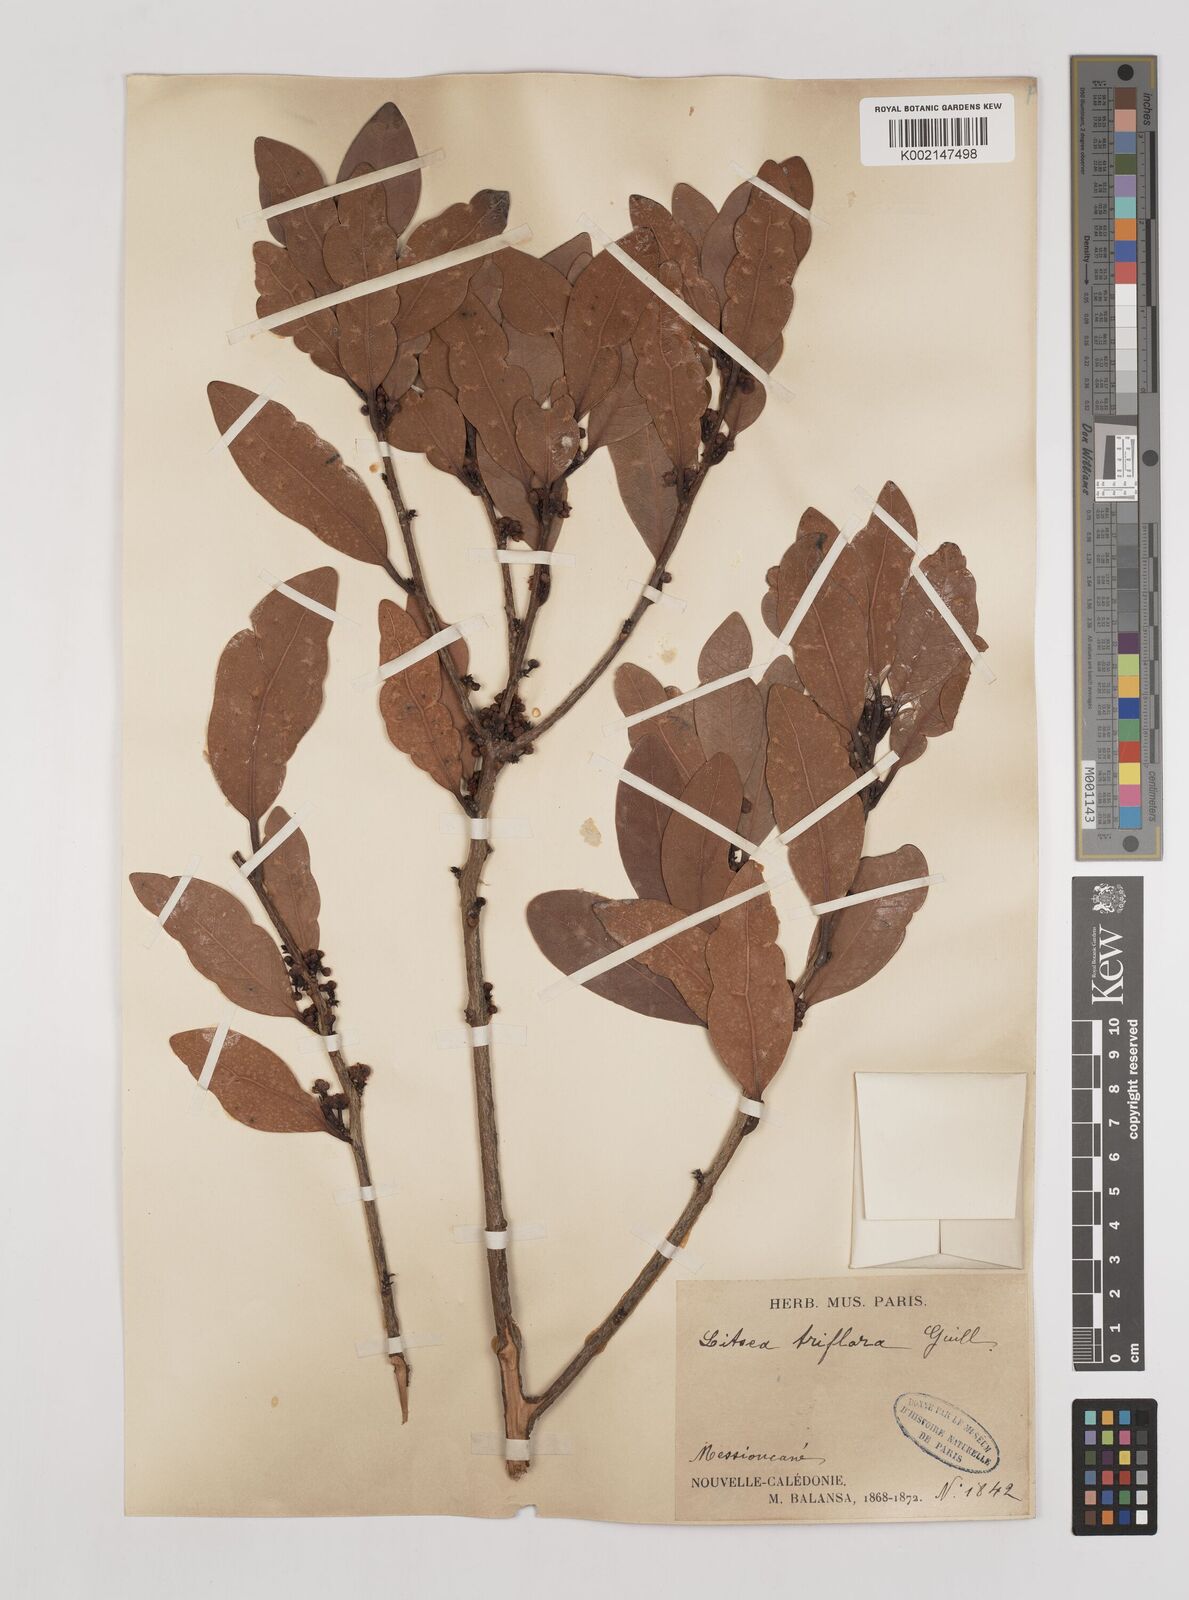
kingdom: Plantae
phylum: Tracheophyta
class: Magnoliopsida
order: Laurales
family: Lauraceae
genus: Litsea
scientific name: Litsea triflora
